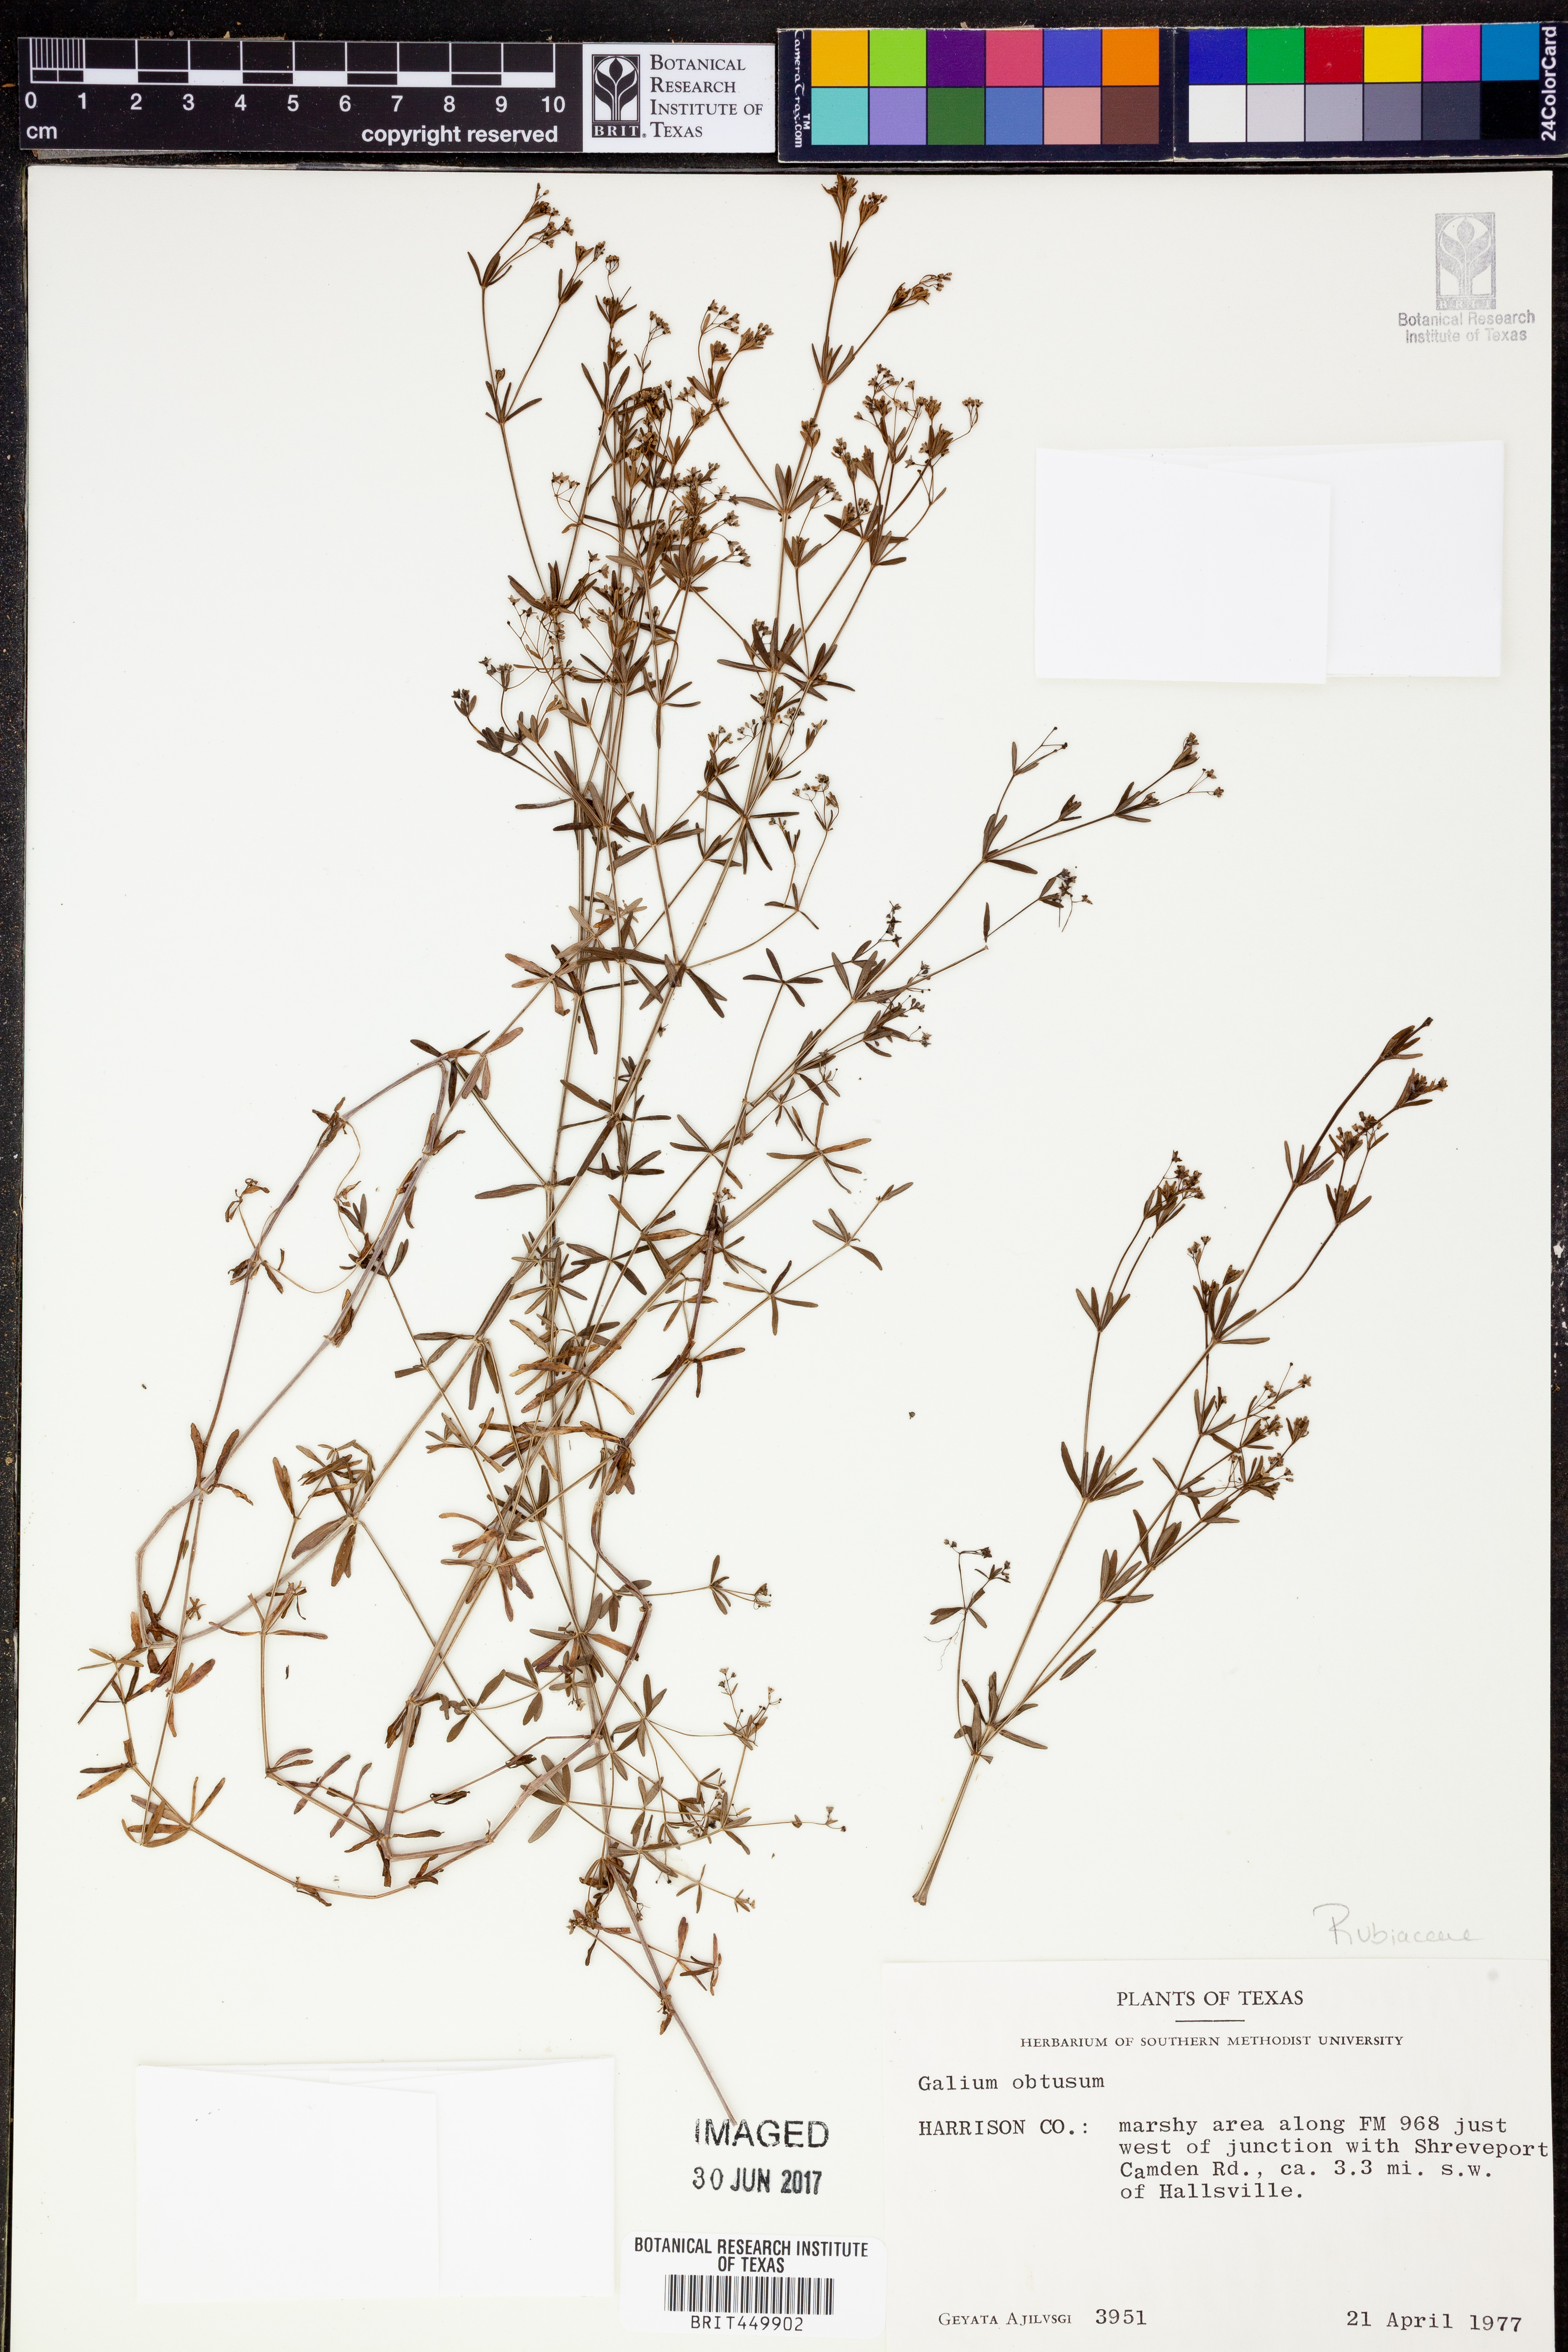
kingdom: Plantae
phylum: Tracheophyta
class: Magnoliopsida
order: Gentianales
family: Rubiaceae
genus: Galium
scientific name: Galium obtusum
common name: Blunt-leaved bedstraw
